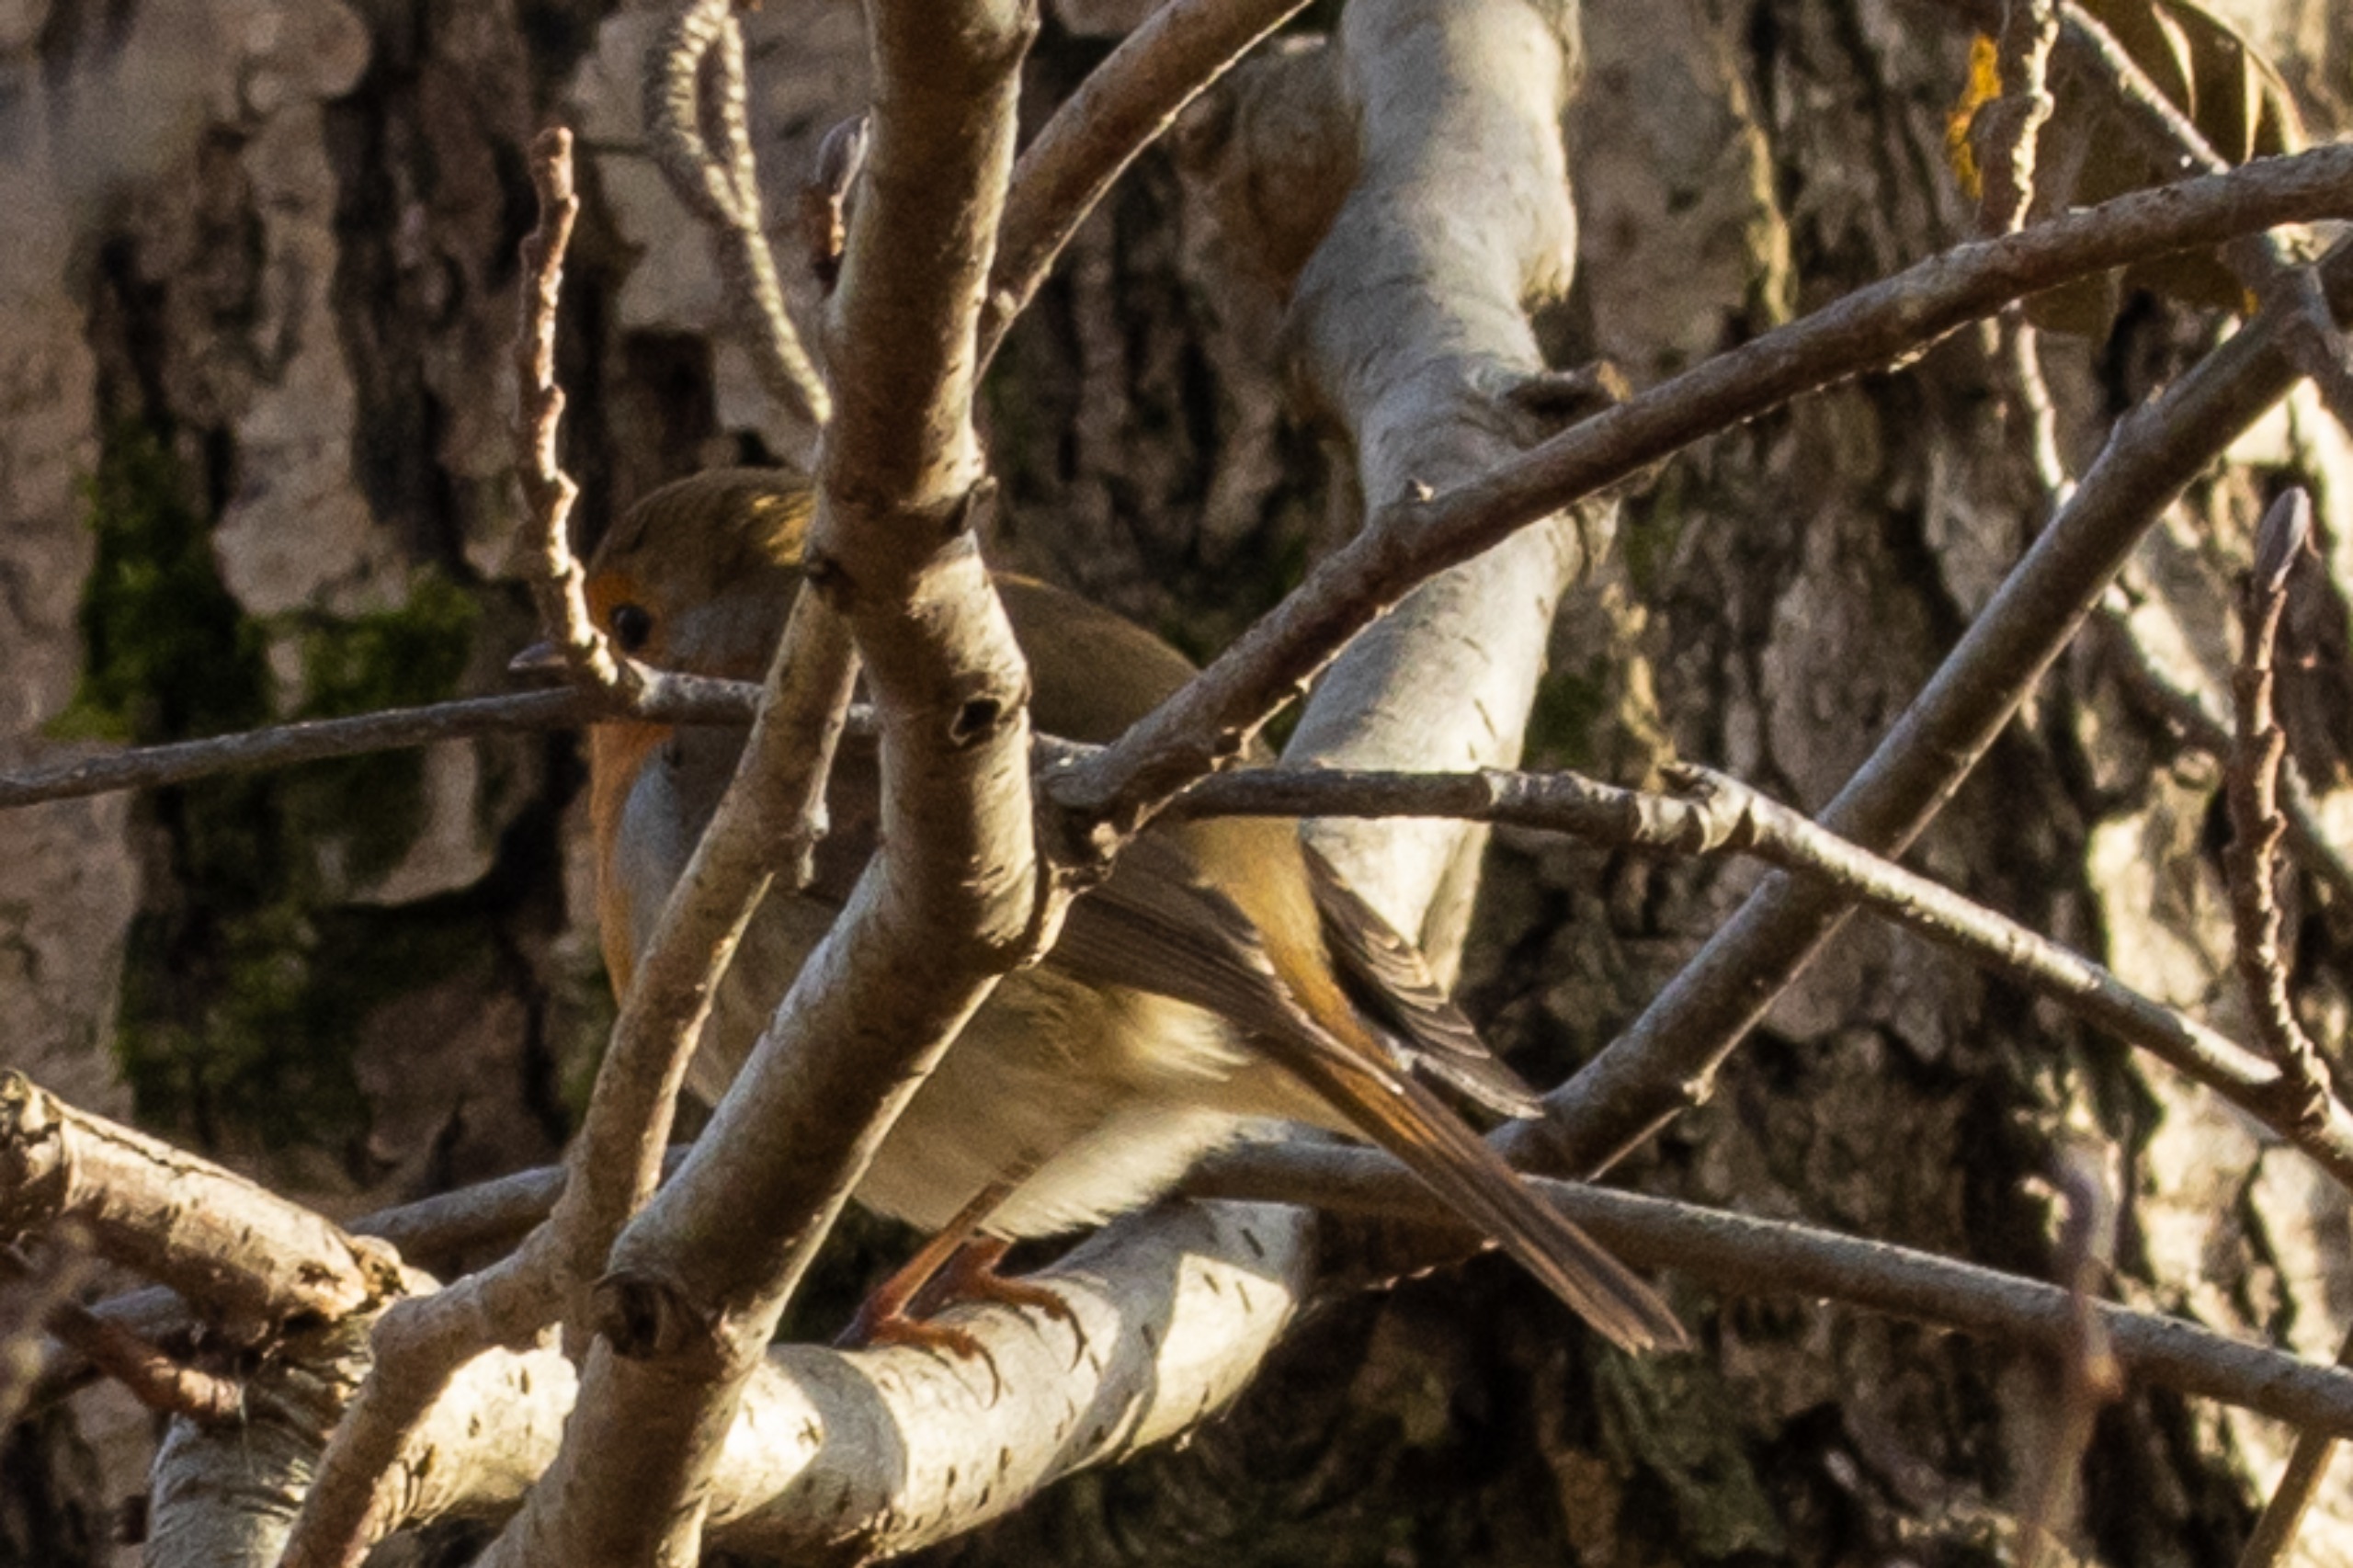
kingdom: Animalia
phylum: Chordata
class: Aves
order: Passeriformes
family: Muscicapidae
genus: Erithacus
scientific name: Erithacus rubecula
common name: Rødhals/rødkælk
